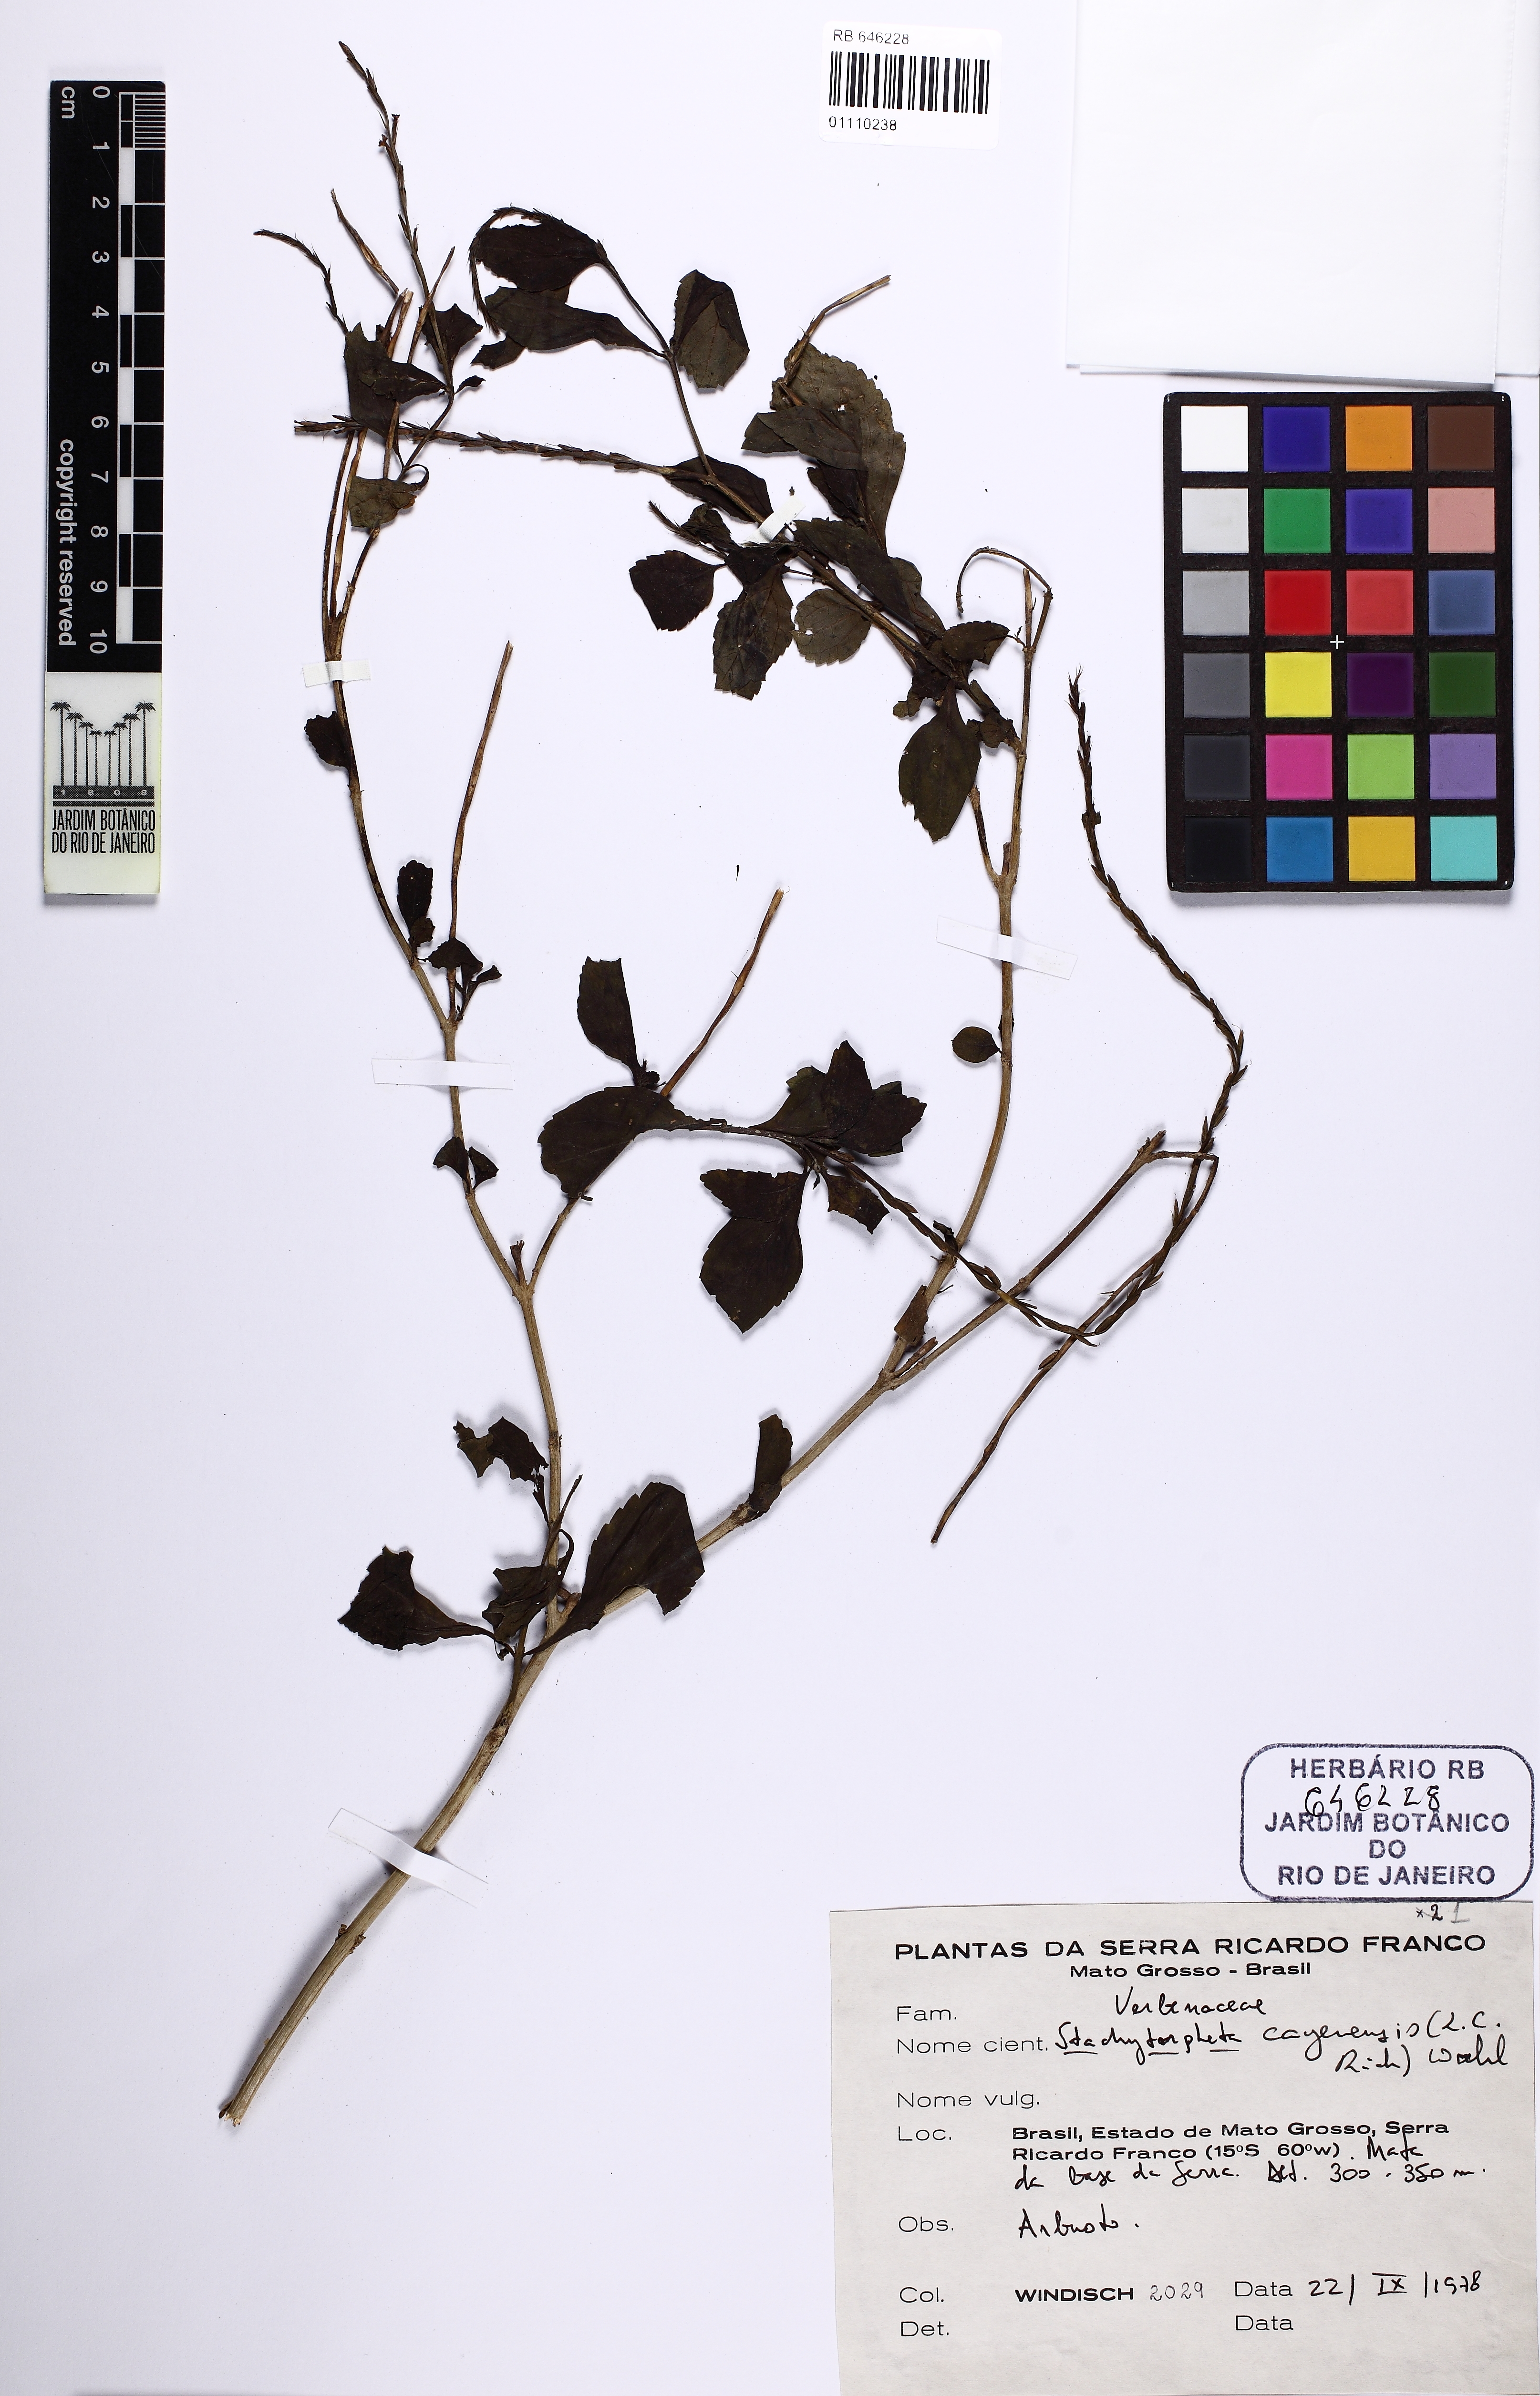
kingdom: Plantae
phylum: Tracheophyta
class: Magnoliopsida
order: Lamiales
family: Verbenaceae
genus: Stachytarpheta
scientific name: Stachytarpheta cayennensis
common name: Cayenne porterweed
